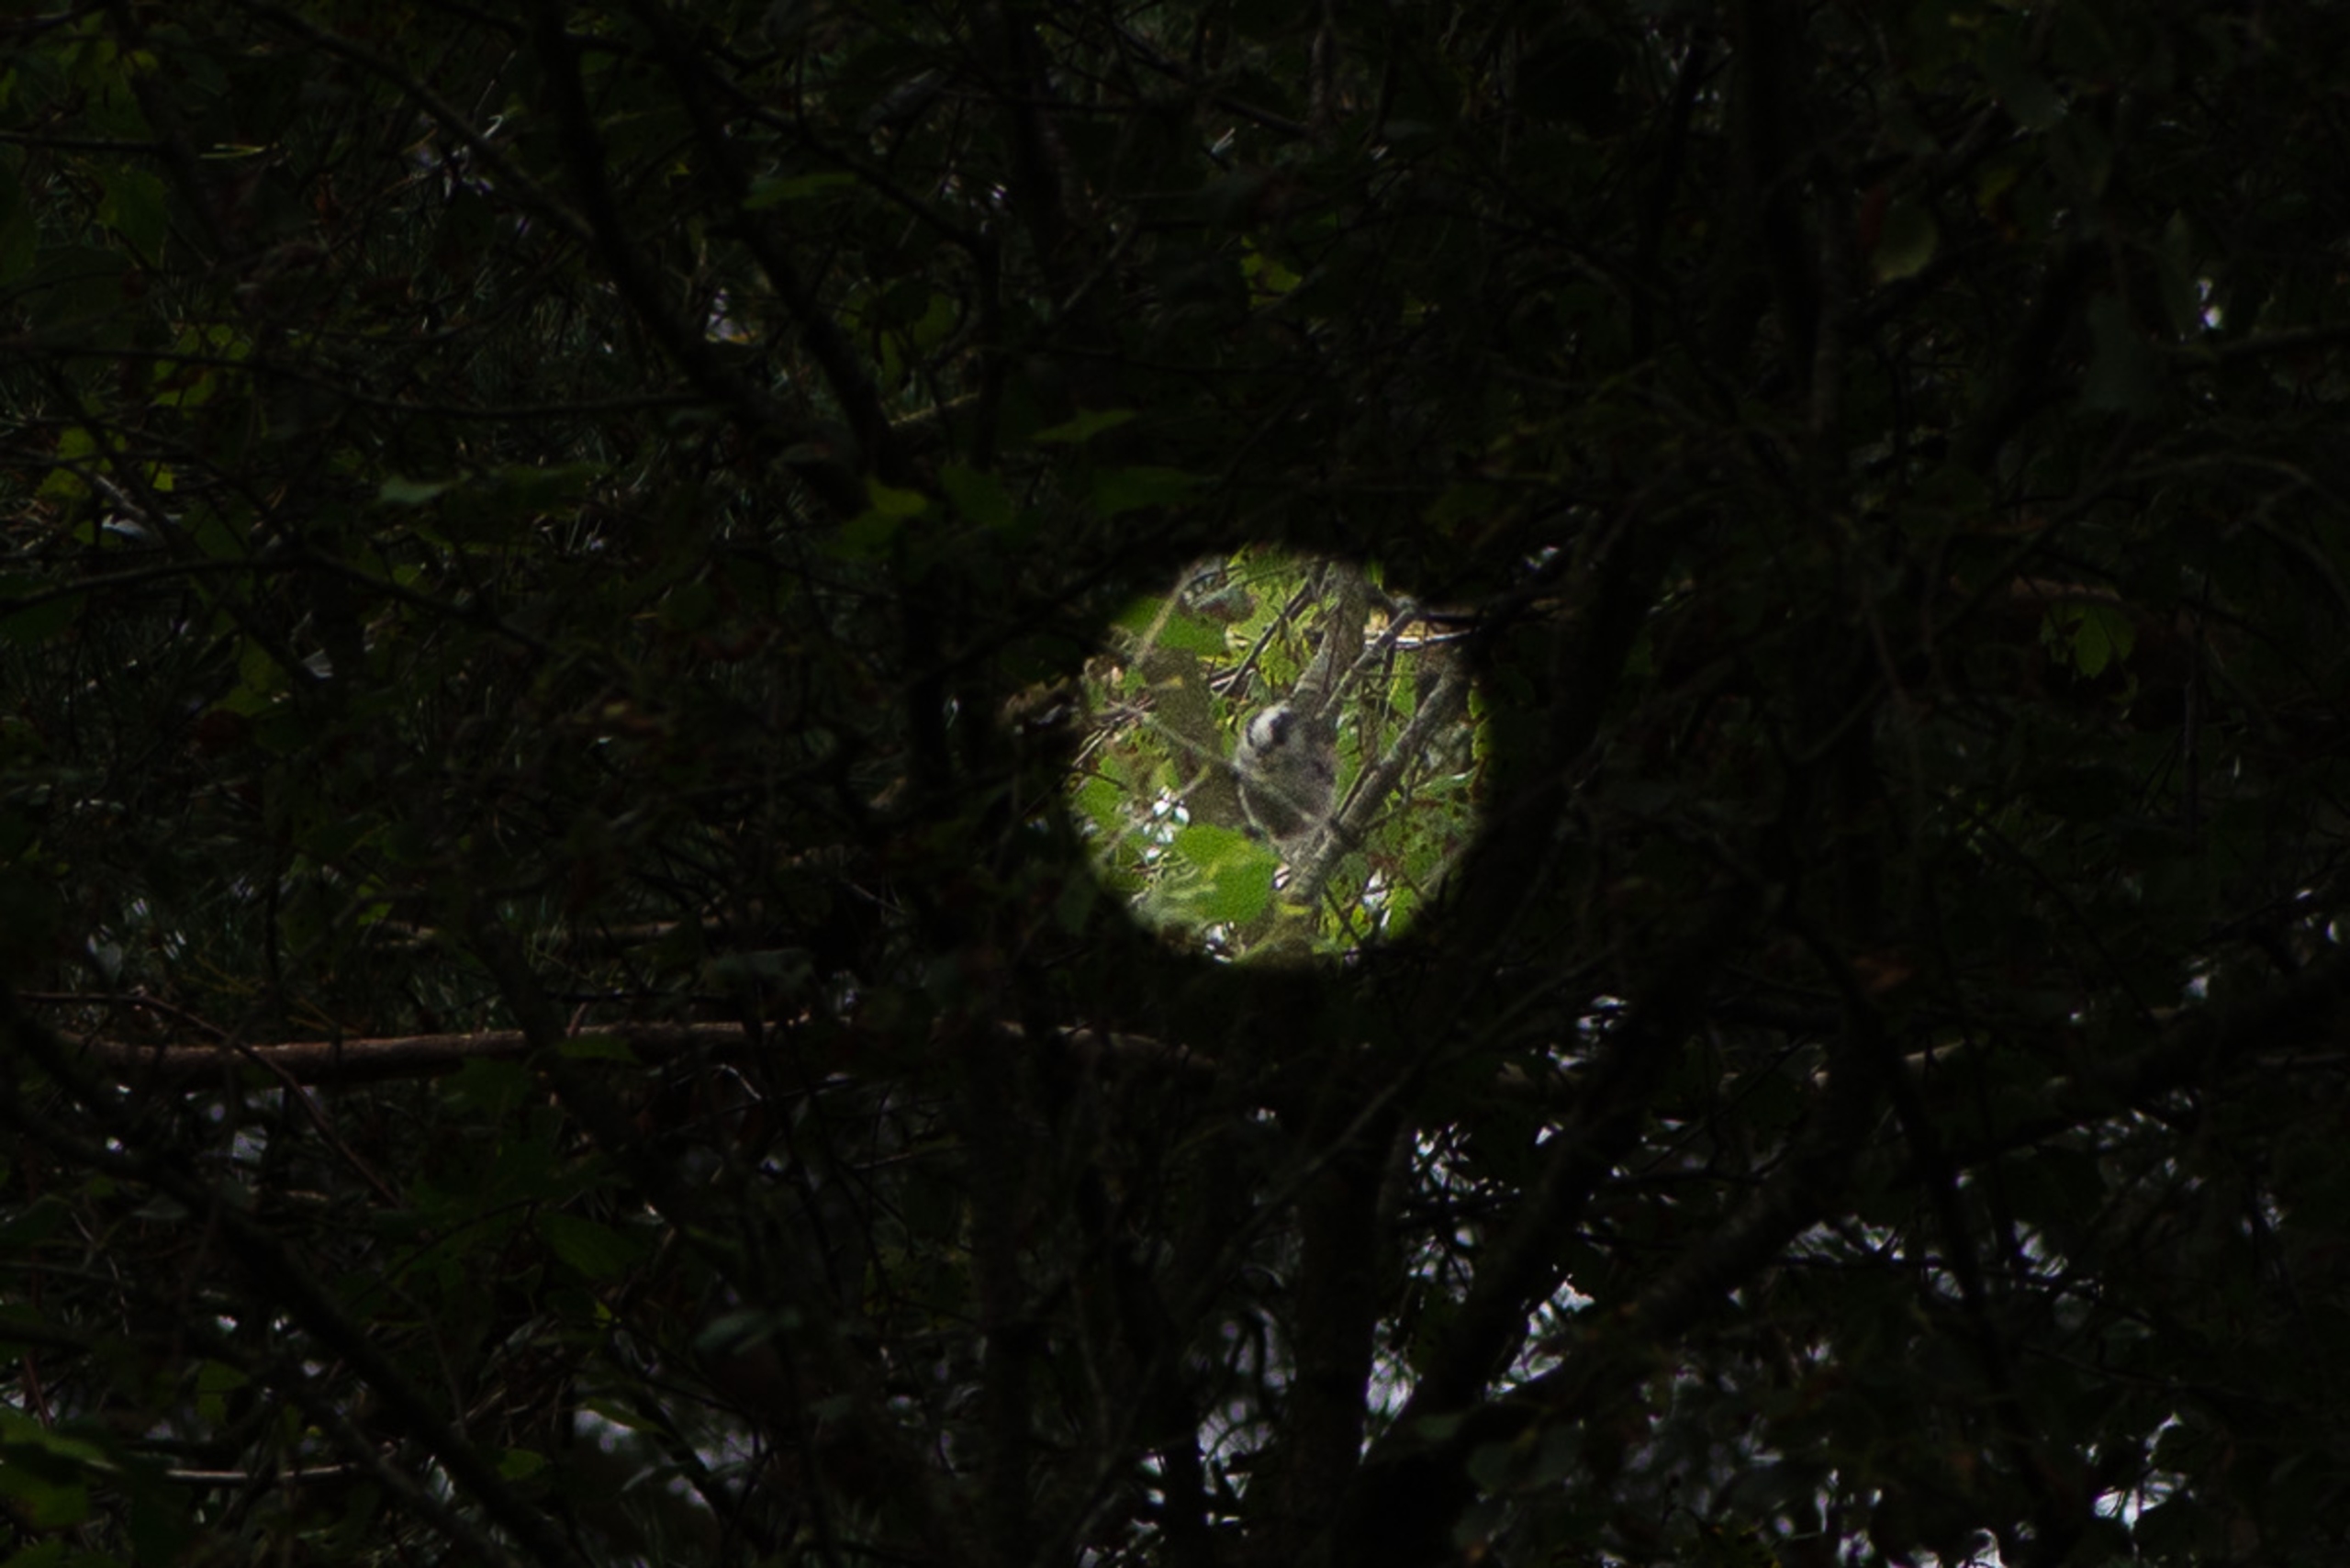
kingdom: Animalia
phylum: Chordata
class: Aves
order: Passeriformes
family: Aegithalidae
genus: Aegithalos
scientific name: Aegithalos caudatus
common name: Halemejse
